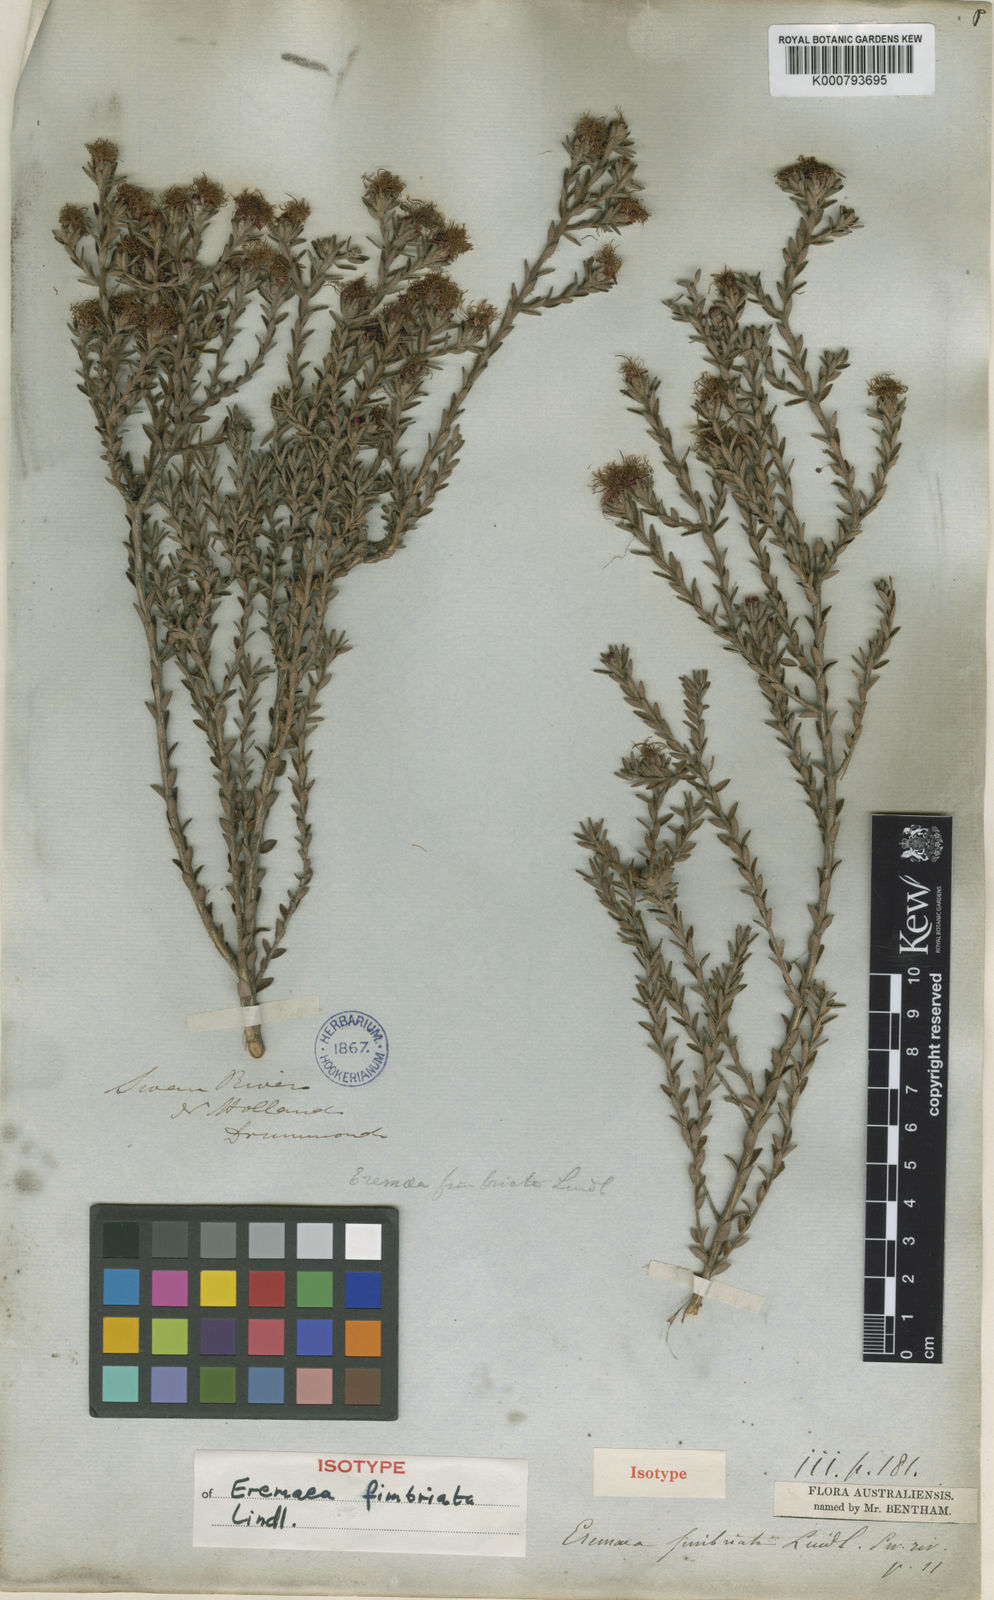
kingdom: Plantae
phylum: Tracheophyta
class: Magnoliopsida
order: Myrtales
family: Myrtaceae
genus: Melaleuca
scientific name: Melaleuca thysanota
